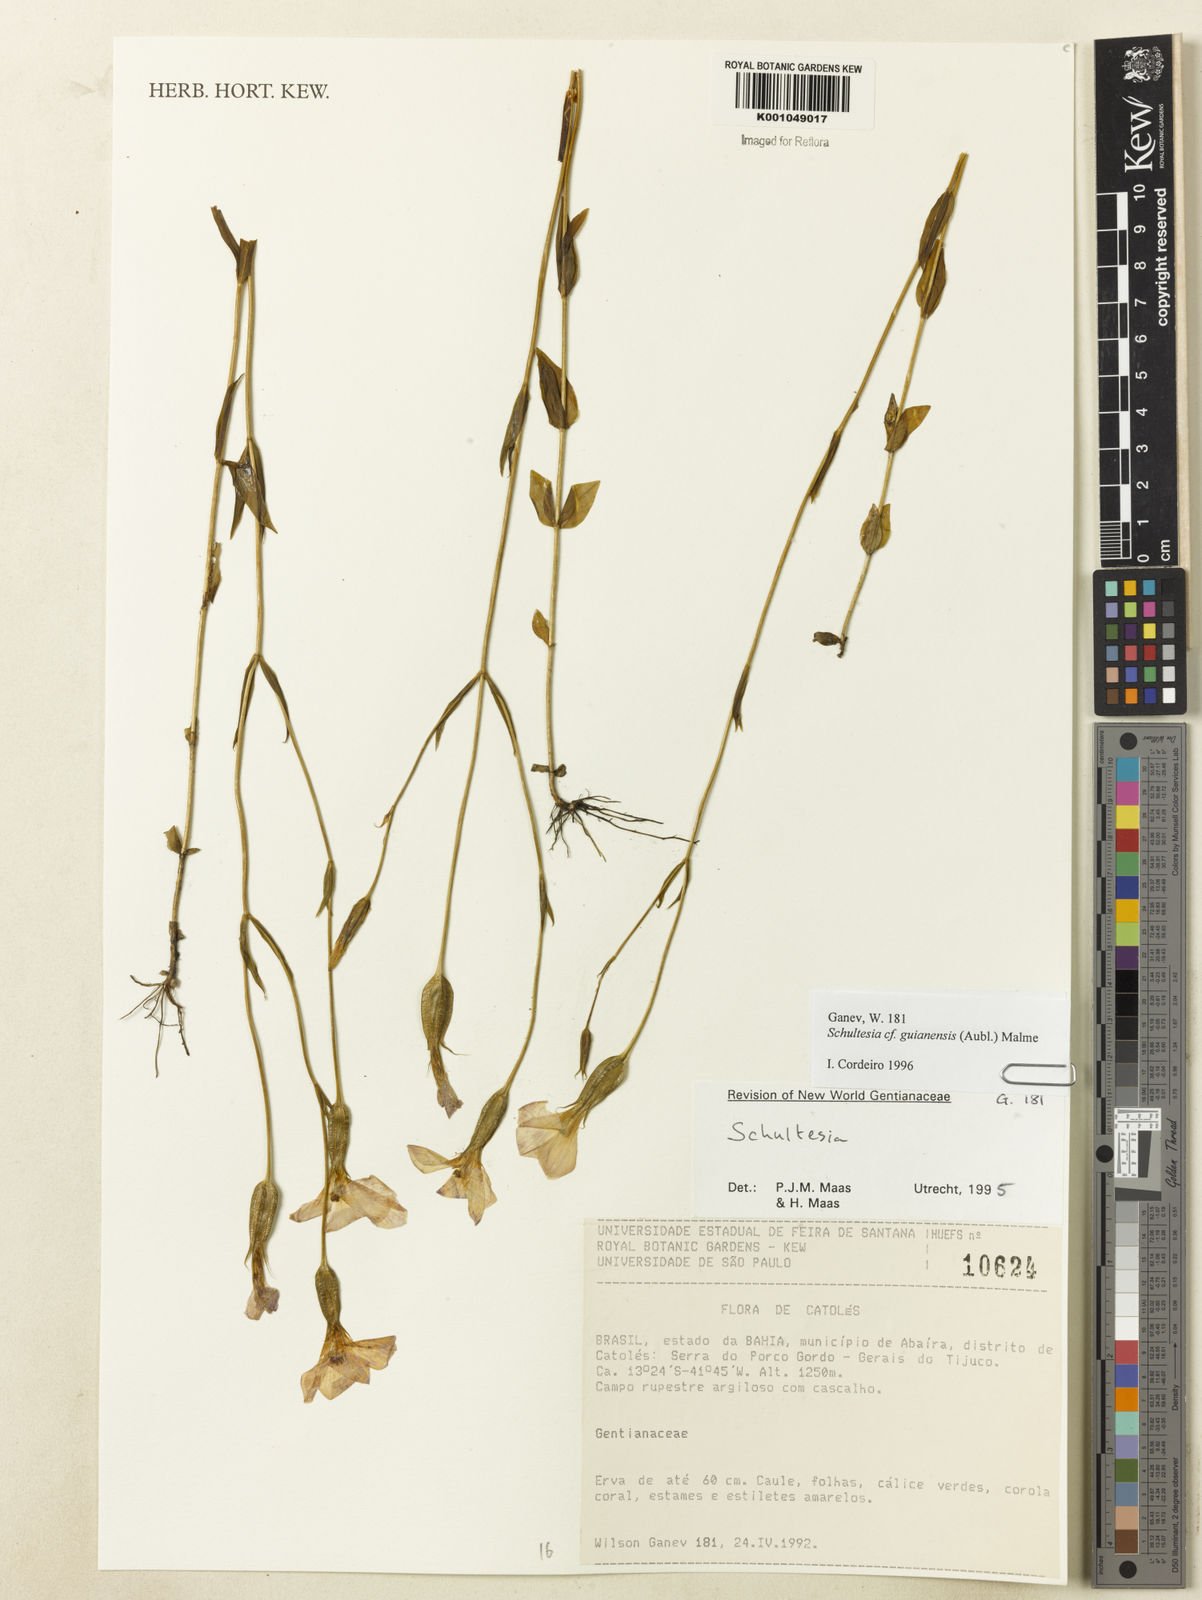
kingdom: Plantae
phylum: Tracheophyta
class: Magnoliopsida
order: Gentianales
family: Gentianaceae
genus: Schultesia
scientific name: Schultesia guianensis
